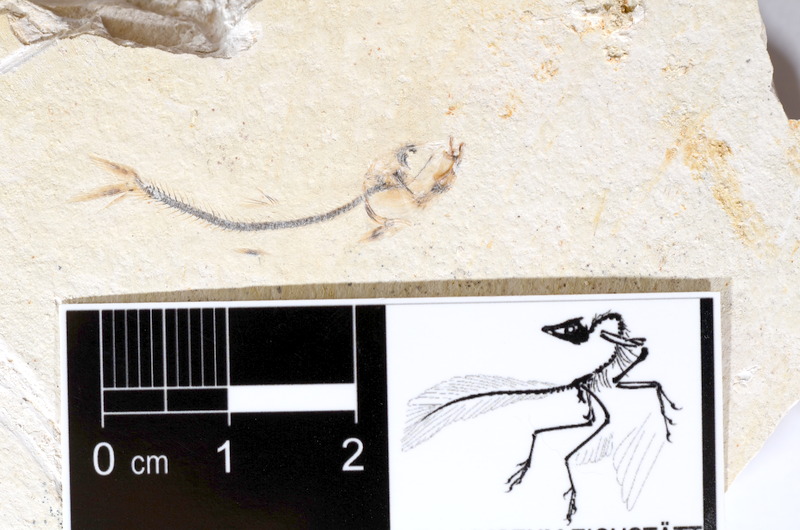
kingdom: Animalia
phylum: Chordata
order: Salmoniformes
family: Orthogonikleithridae
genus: Orthogonikleithrus
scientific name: Orthogonikleithrus hoelli
